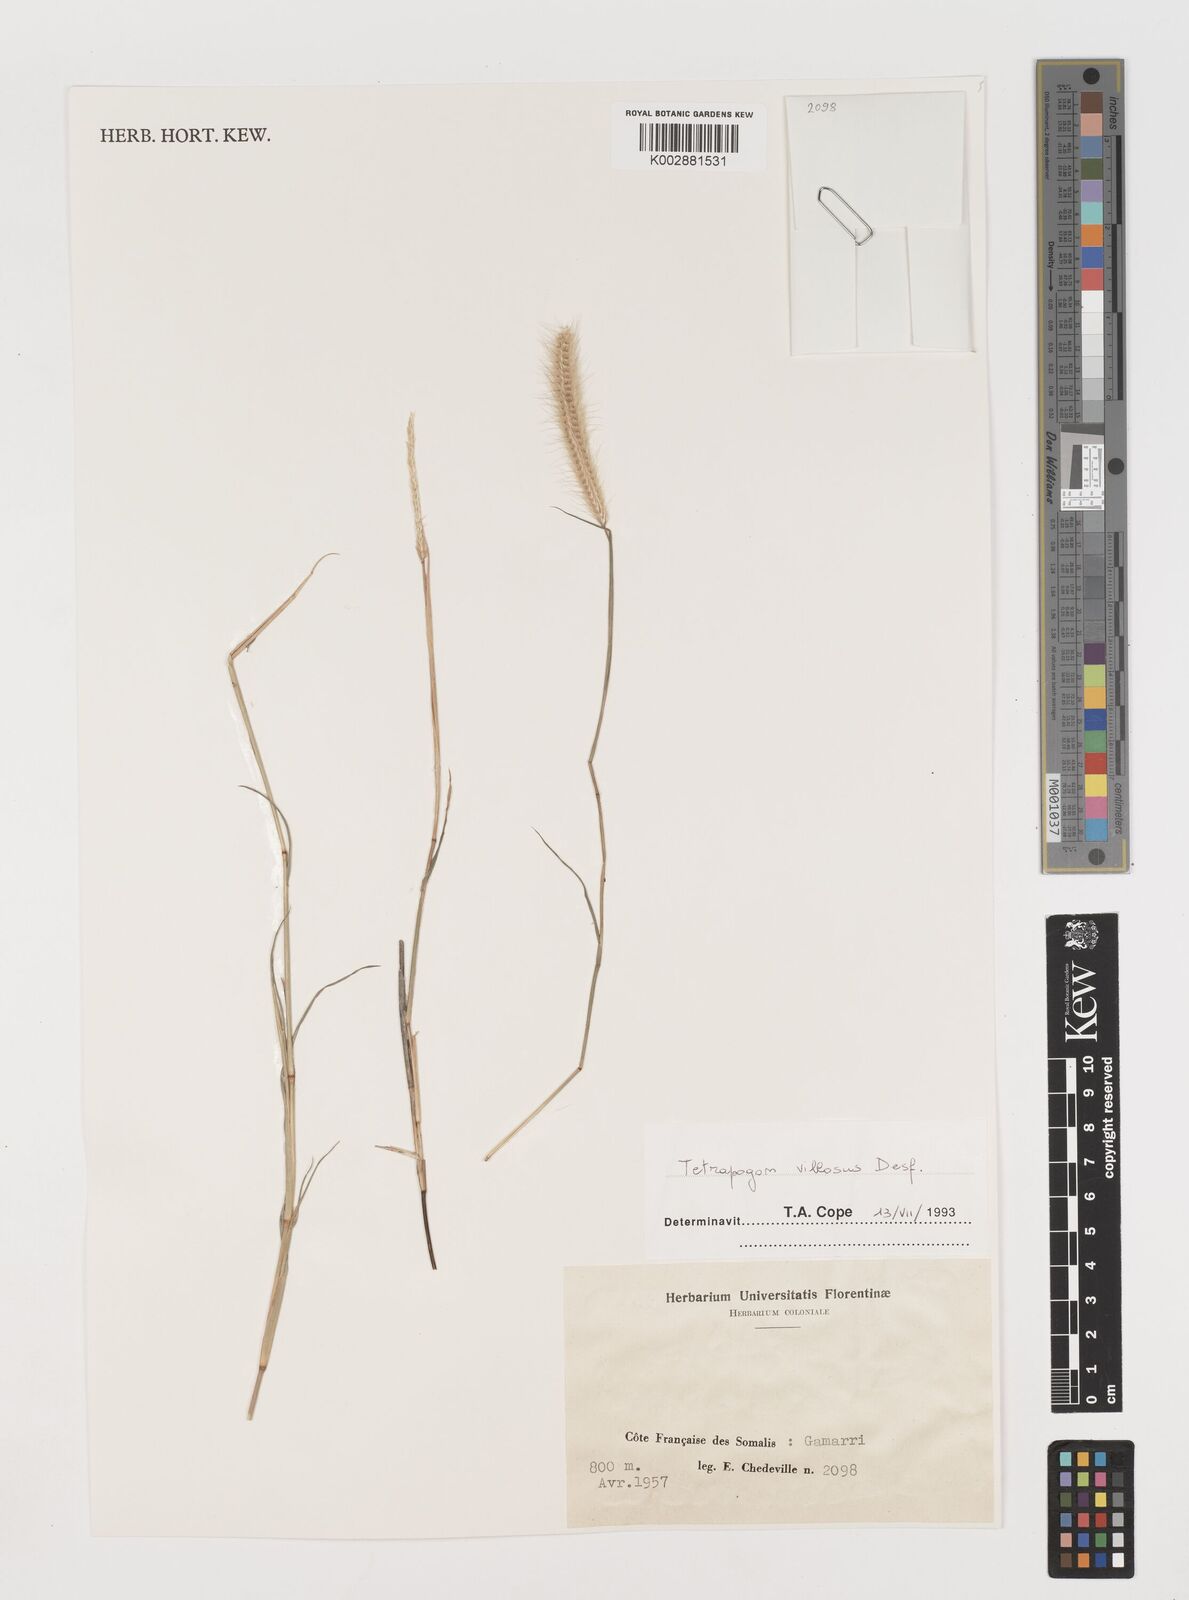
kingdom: Plantae
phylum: Tracheophyta
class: Liliopsida
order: Poales
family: Poaceae
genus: Tetrapogon
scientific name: Tetrapogon villosus
